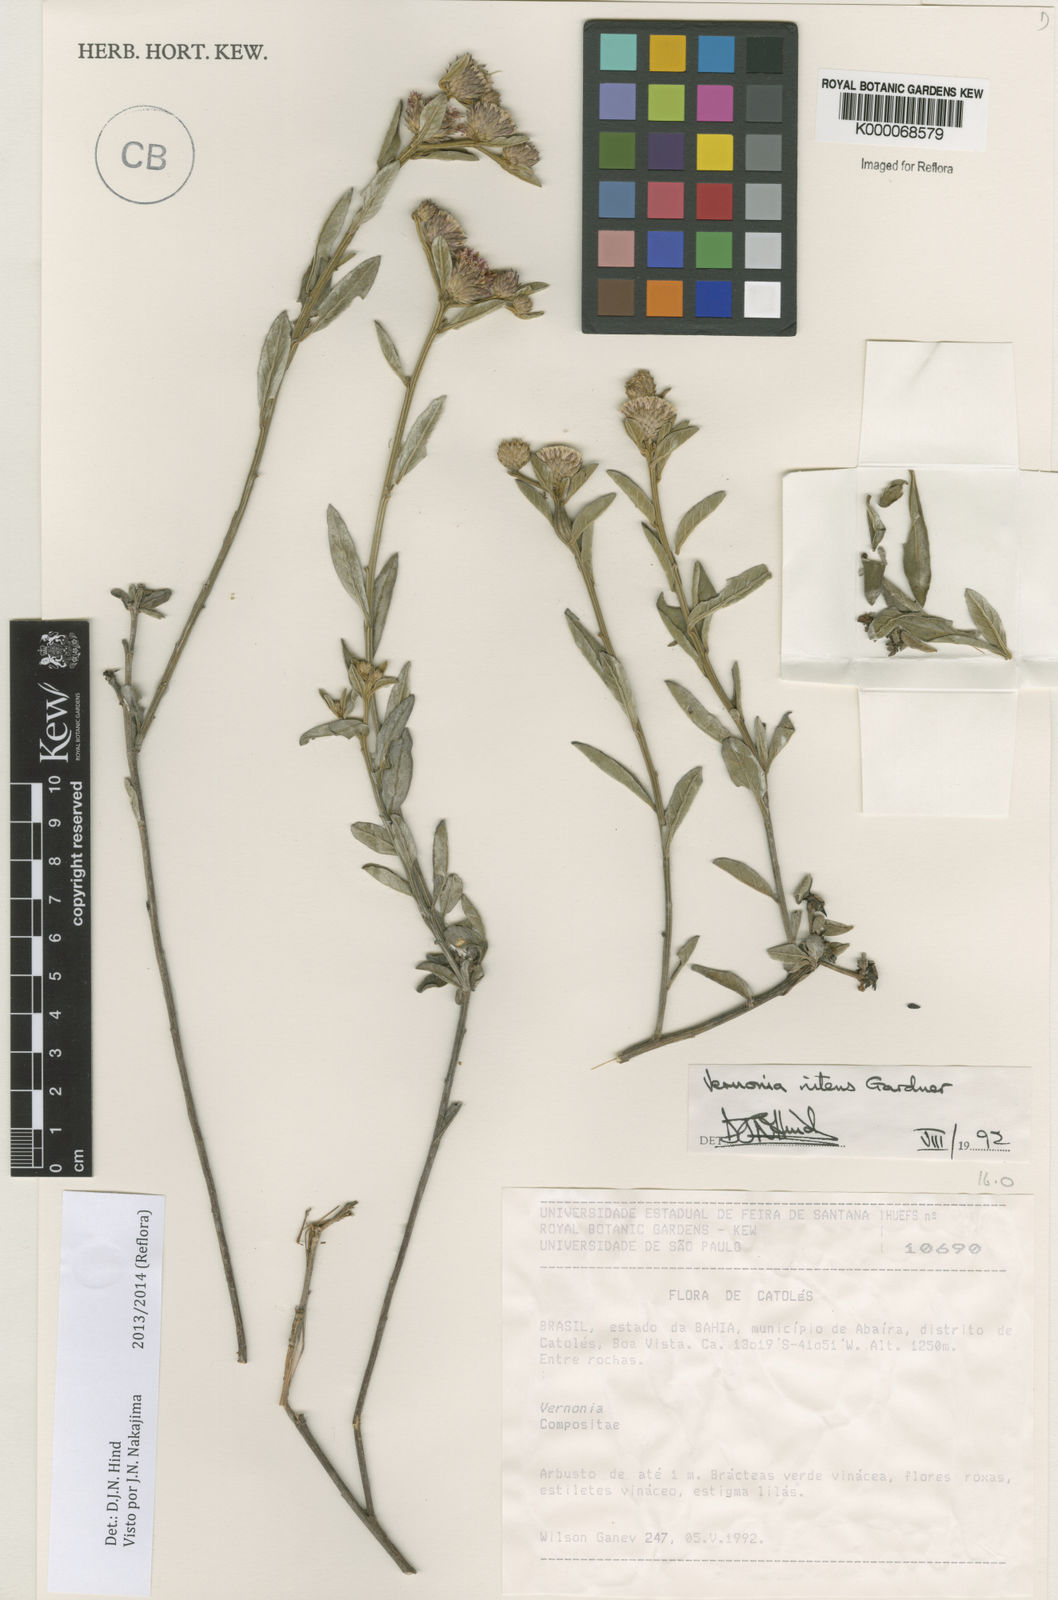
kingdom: Plantae
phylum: Tracheophyta
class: Magnoliopsida
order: Asterales
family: Asteraceae
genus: Lepidaploa
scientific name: Lepidaploa nitens
